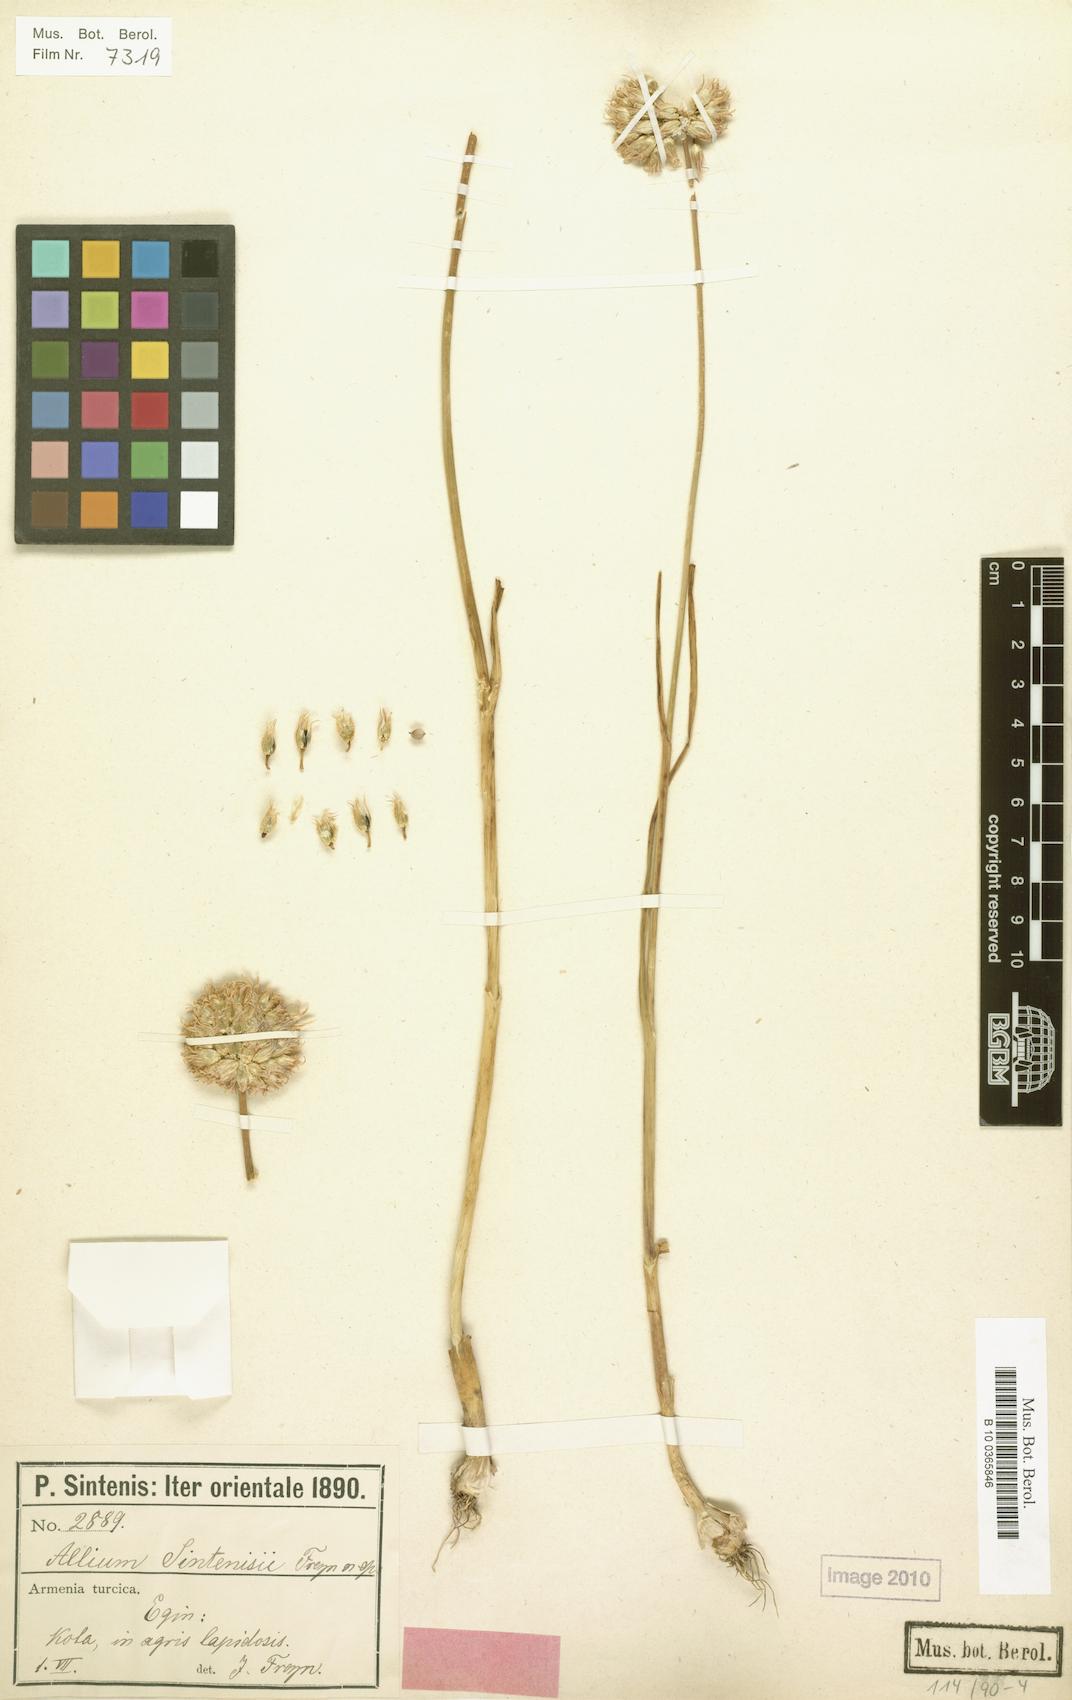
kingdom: Plantae
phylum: Tracheophyta
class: Liliopsida
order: Asparagales
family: Amaryllidaceae
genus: Allium
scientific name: Allium sintenisii
